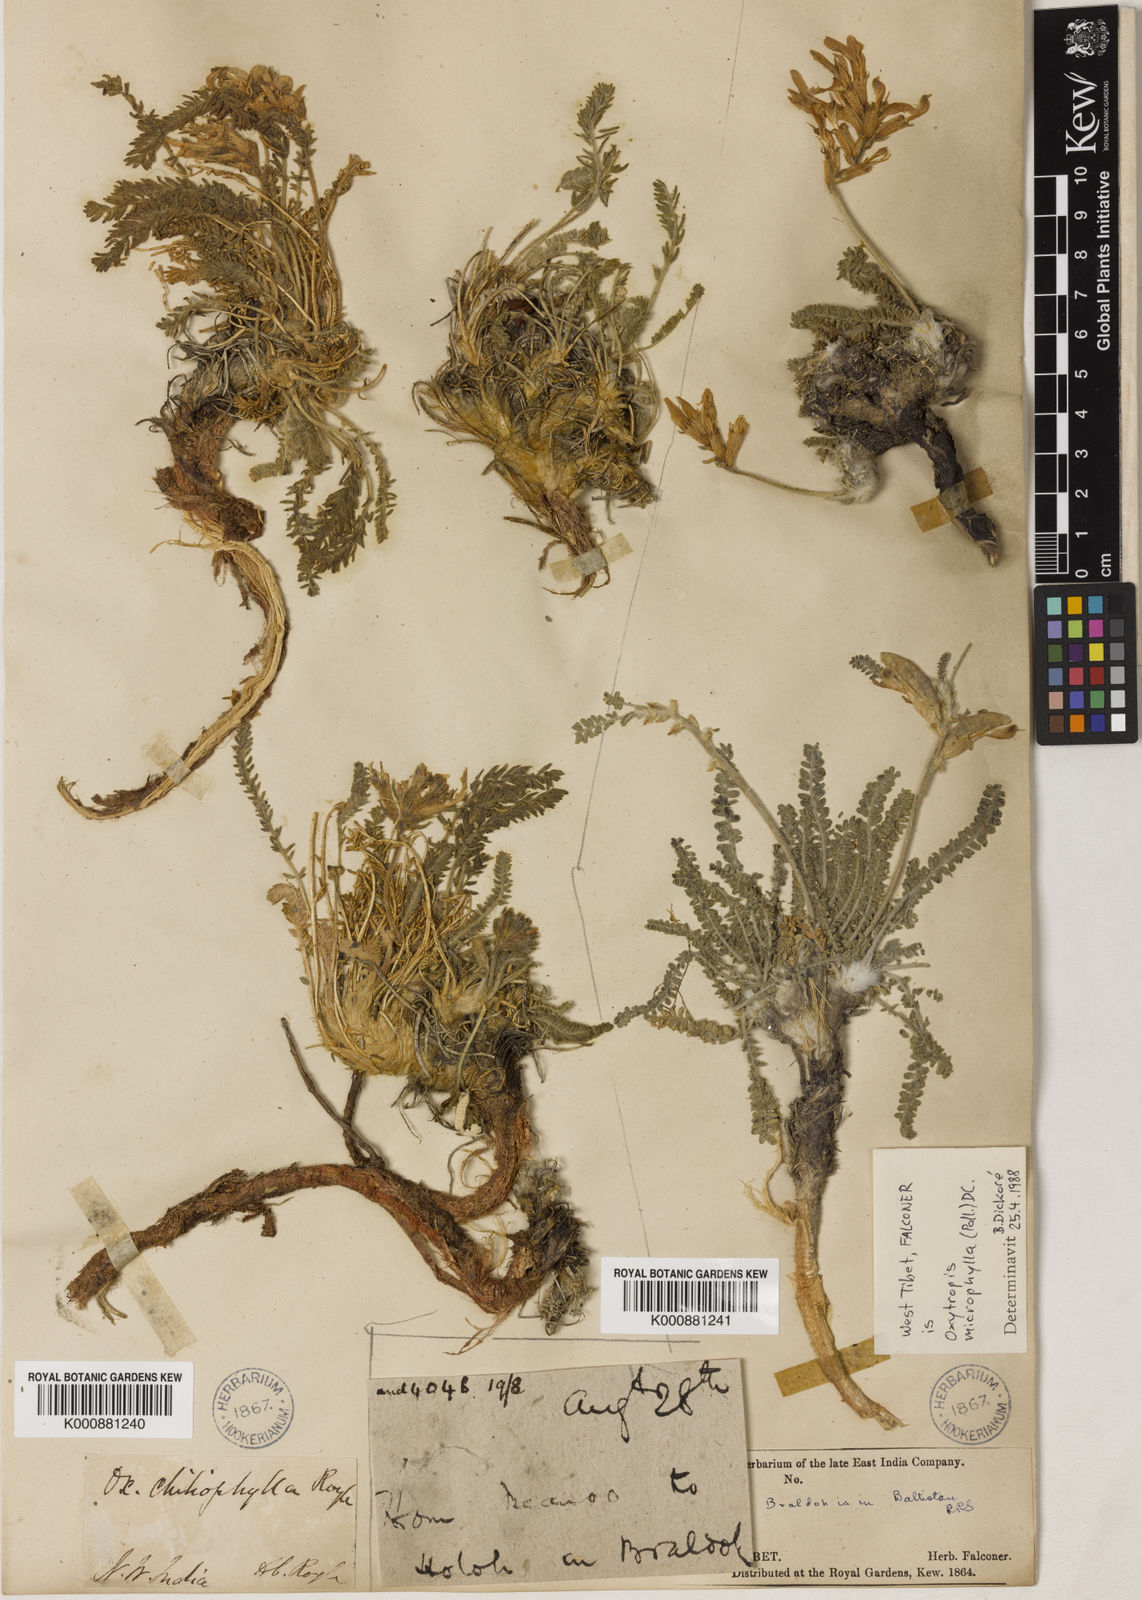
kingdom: Plantae
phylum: Tracheophyta
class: Magnoliopsida
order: Fabales
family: Fabaceae
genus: Oxytropis
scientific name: Oxytropis
